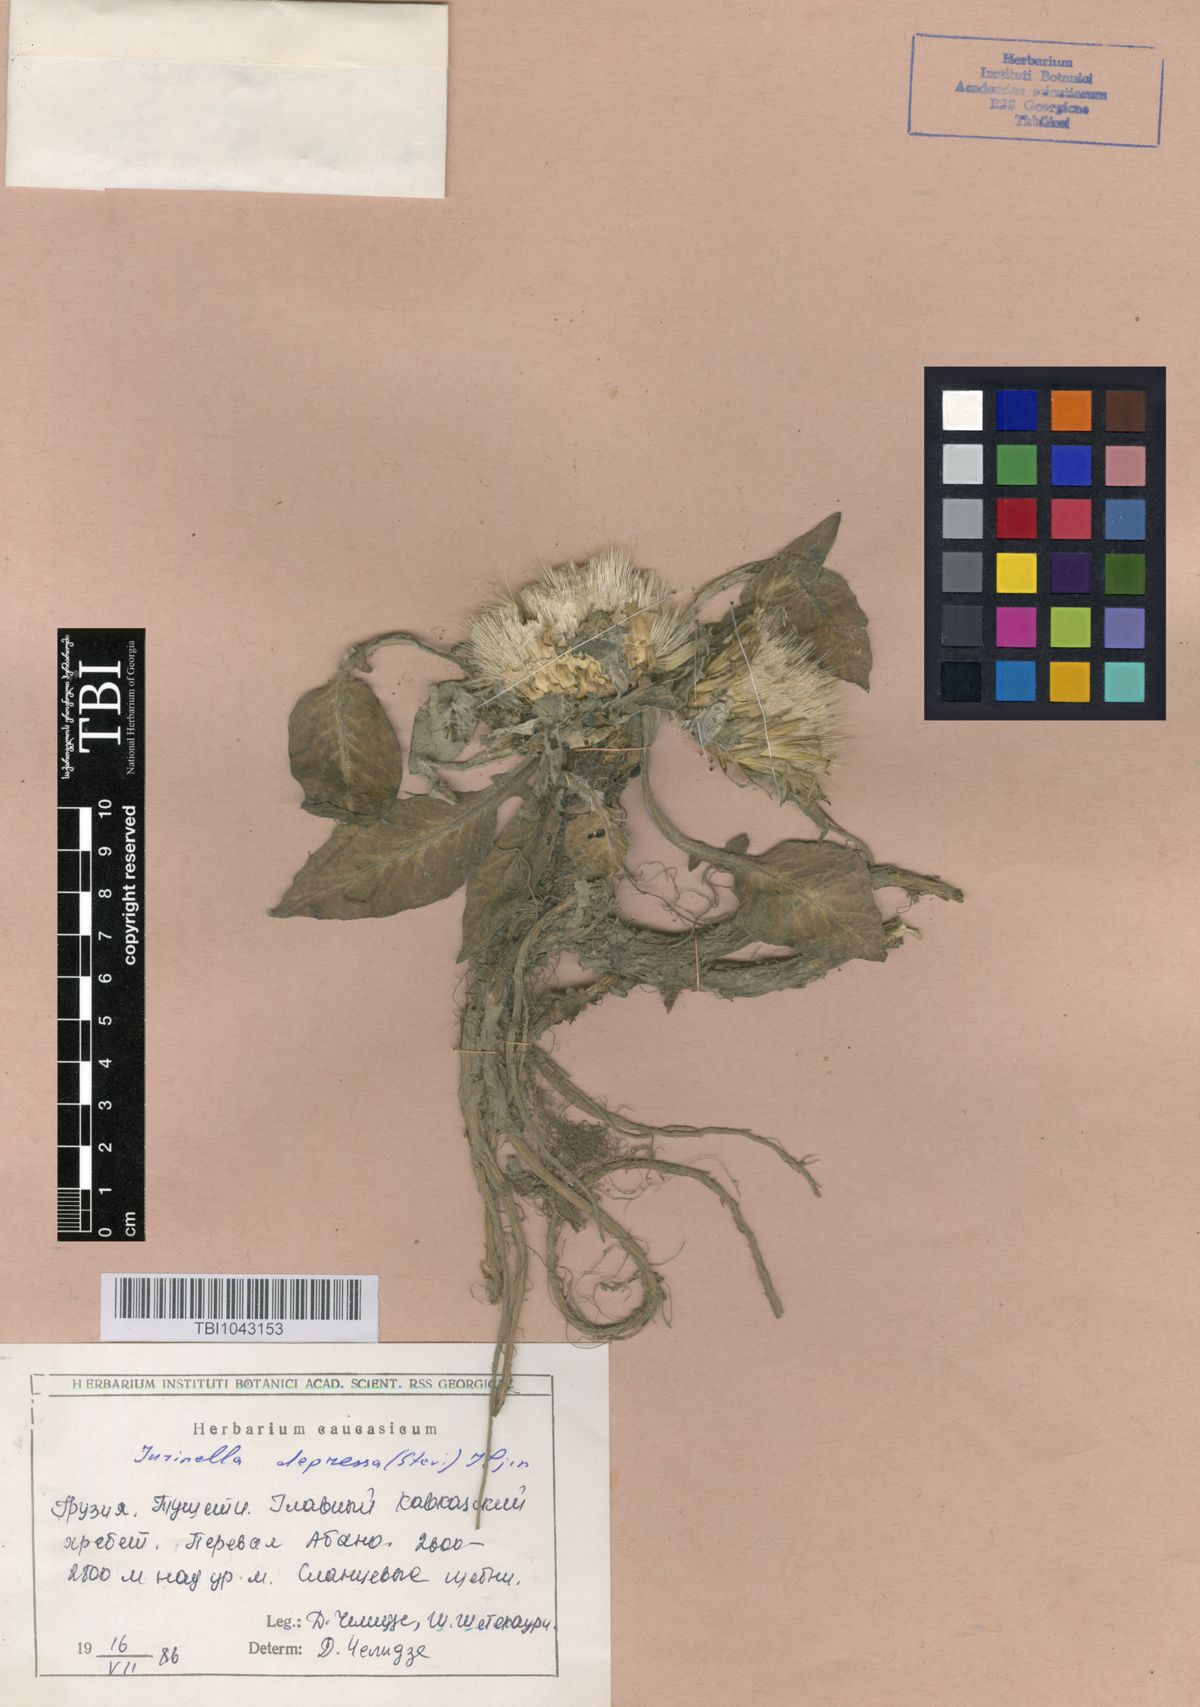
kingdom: Plantae
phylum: Tracheophyta
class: Magnoliopsida
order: Asterales
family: Asteraceae
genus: Jurinea
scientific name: Jurinea moschus
